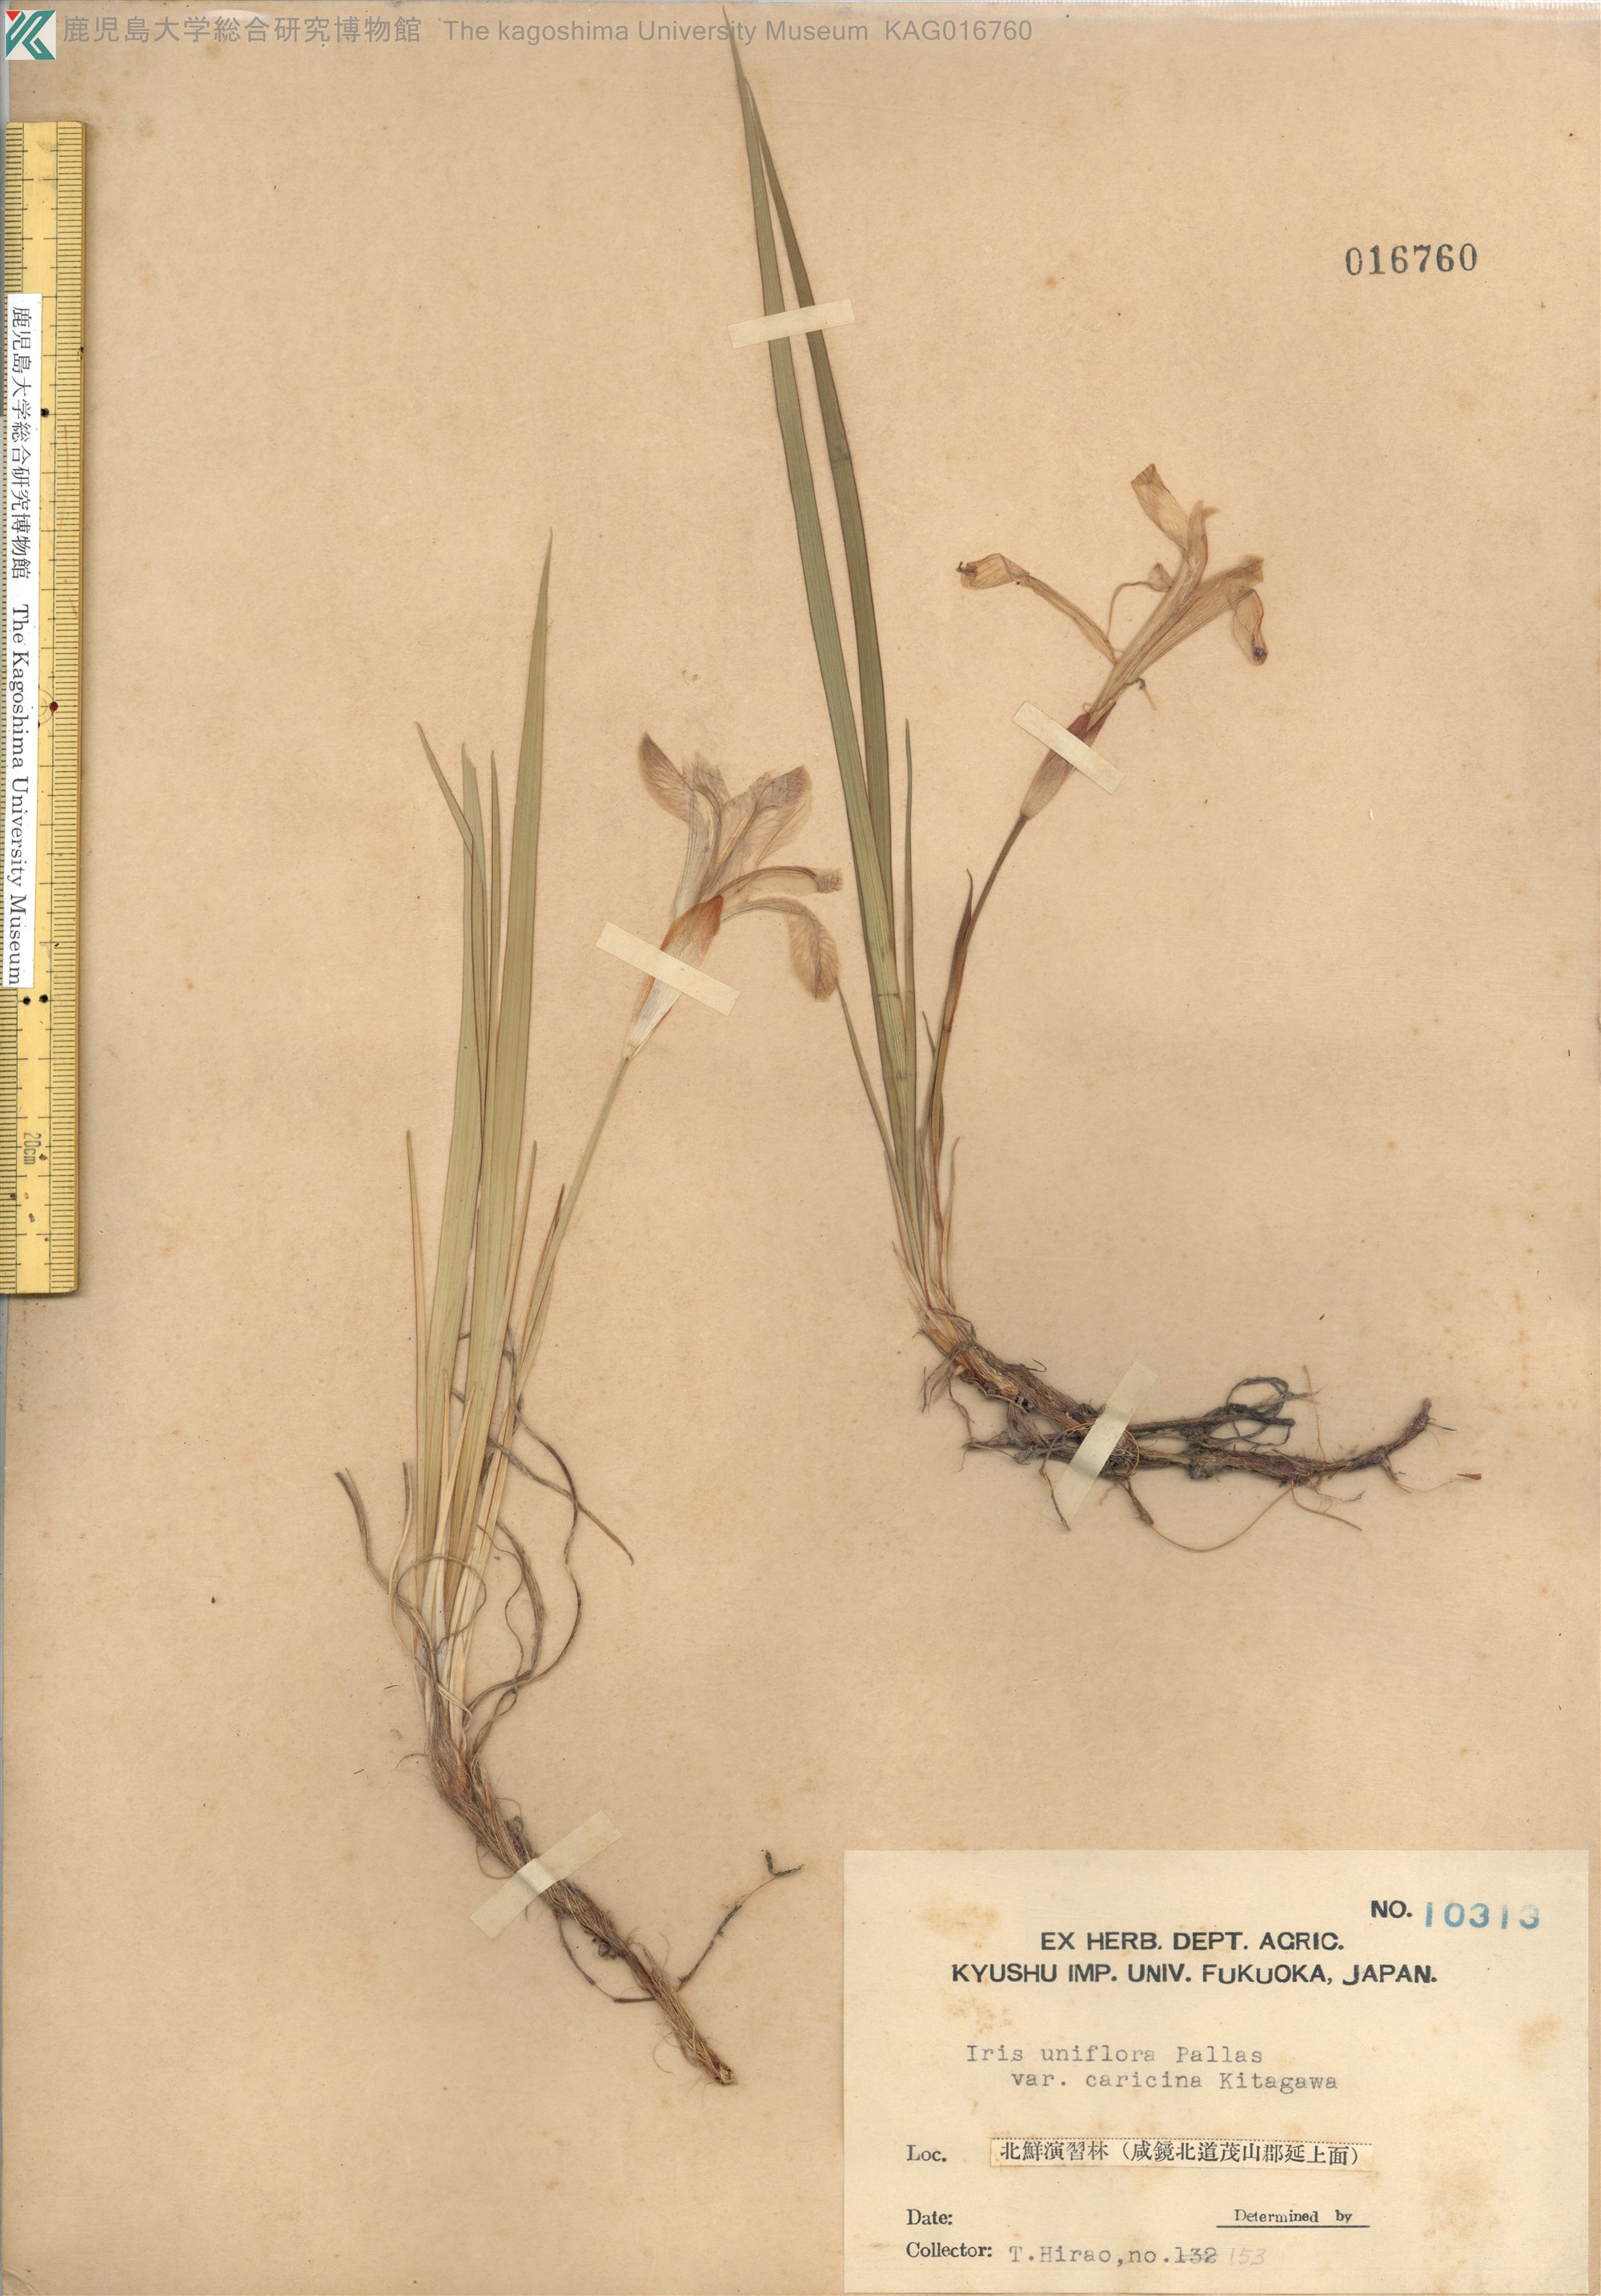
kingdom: Plantae
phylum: Tracheophyta
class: Liliopsida
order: Asparagales
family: Iridaceae
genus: Iris
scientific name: Iris uniflora
